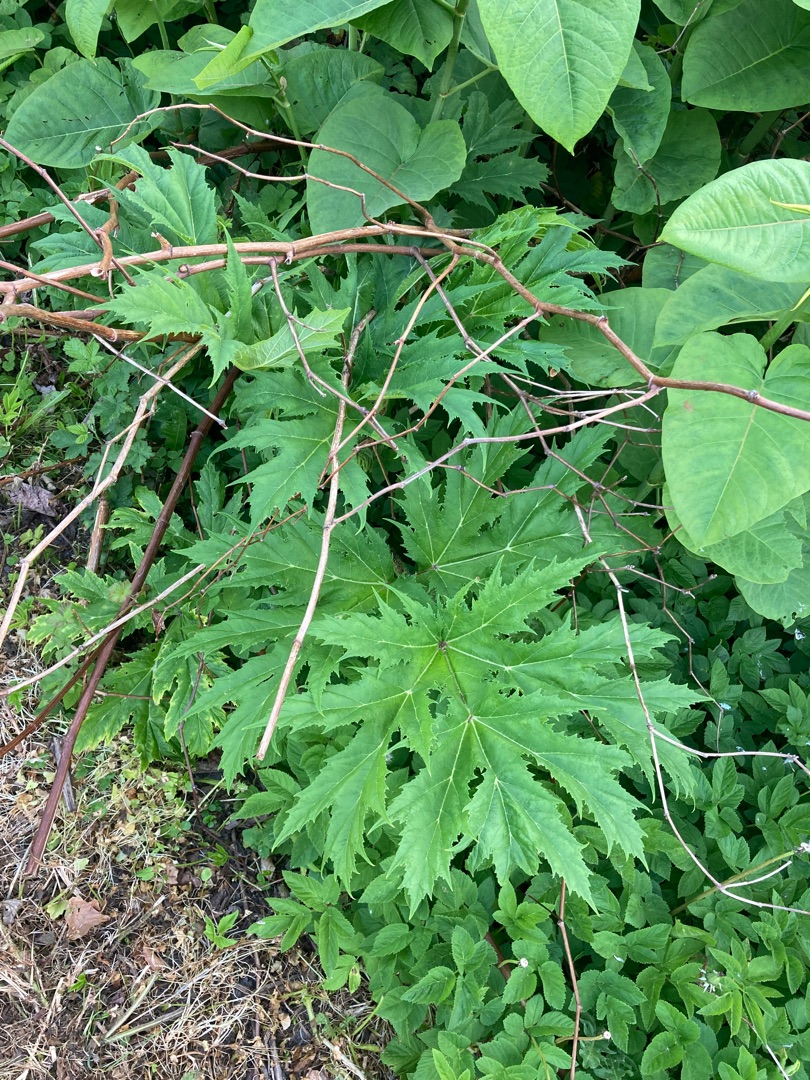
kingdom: Plantae
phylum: Tracheophyta
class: Magnoliopsida
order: Apiales
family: Apiaceae
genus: Heracleum
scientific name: Heracleum mantegazzianum
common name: Kæmpe-bjørneklo
